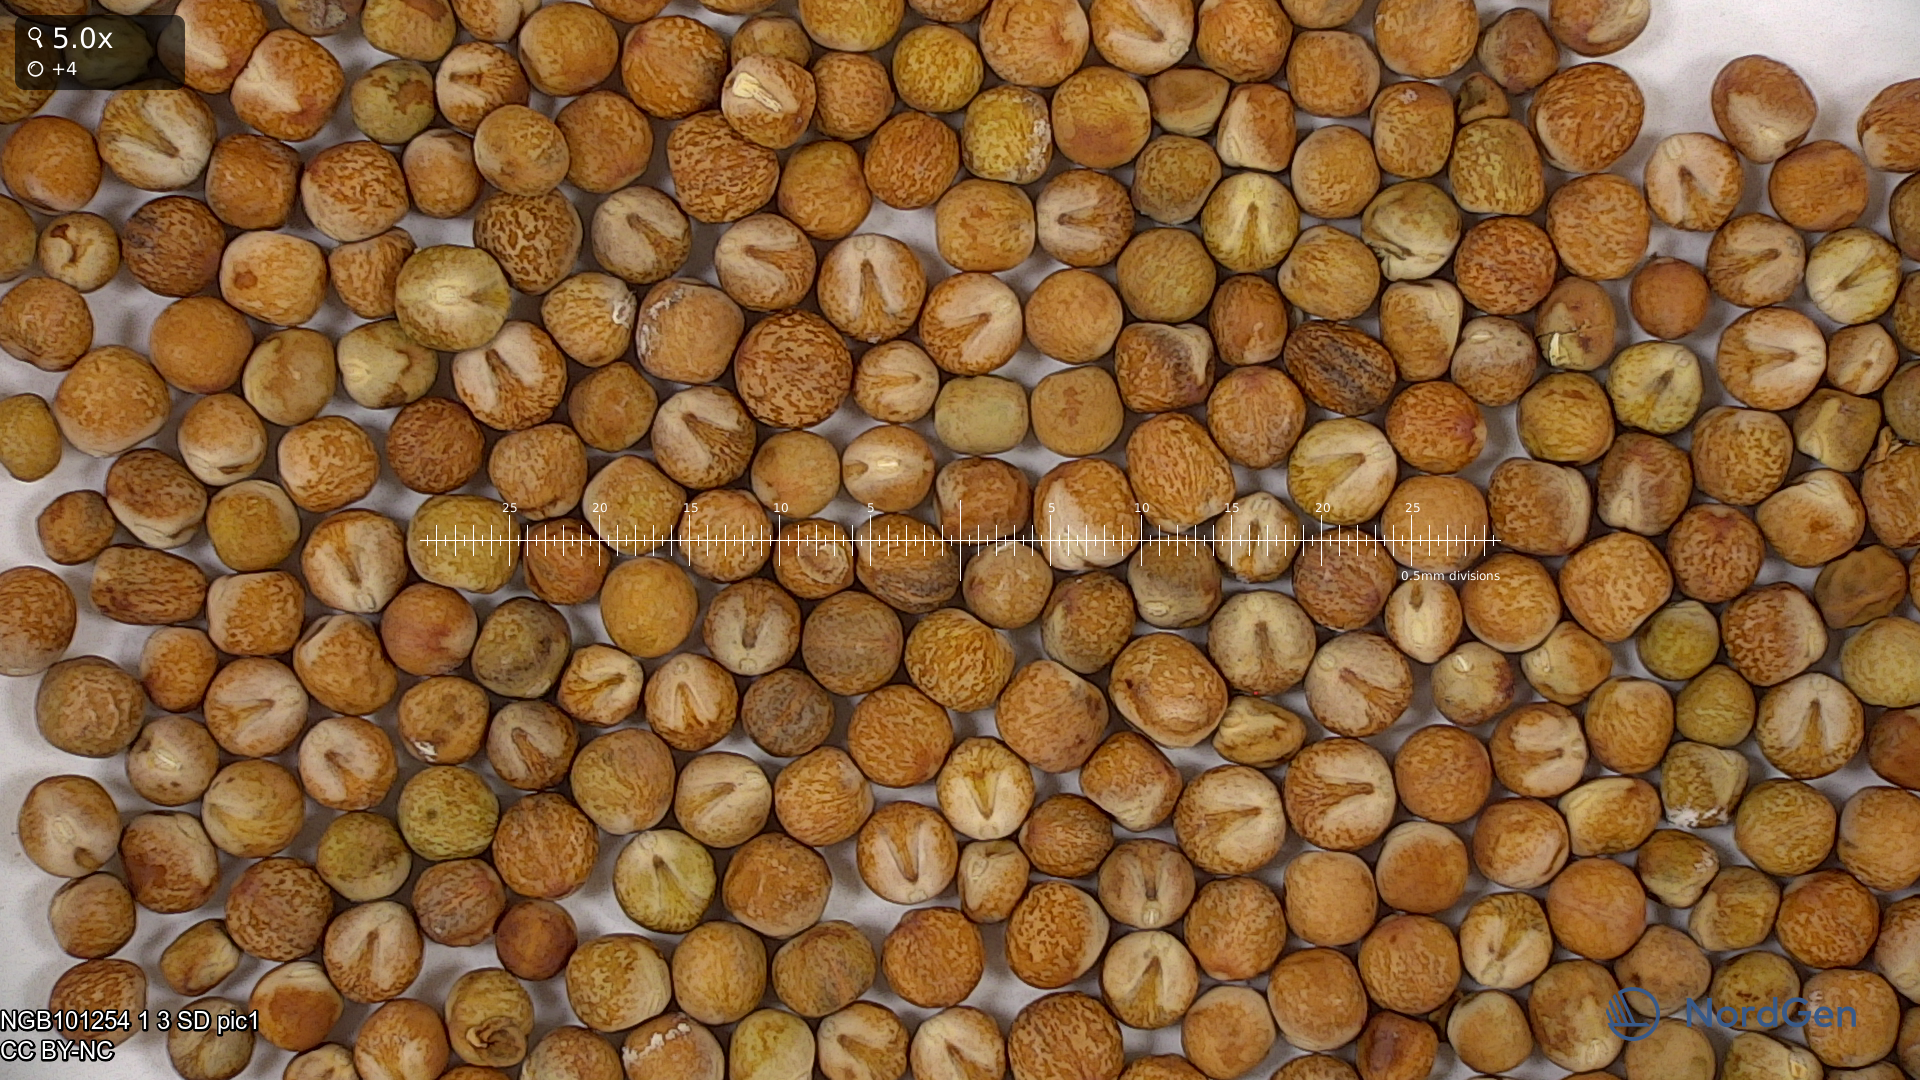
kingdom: Plantae
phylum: Tracheophyta
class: Magnoliopsida
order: Fabales
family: Fabaceae
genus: Lathyrus
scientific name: Lathyrus oleraceus
